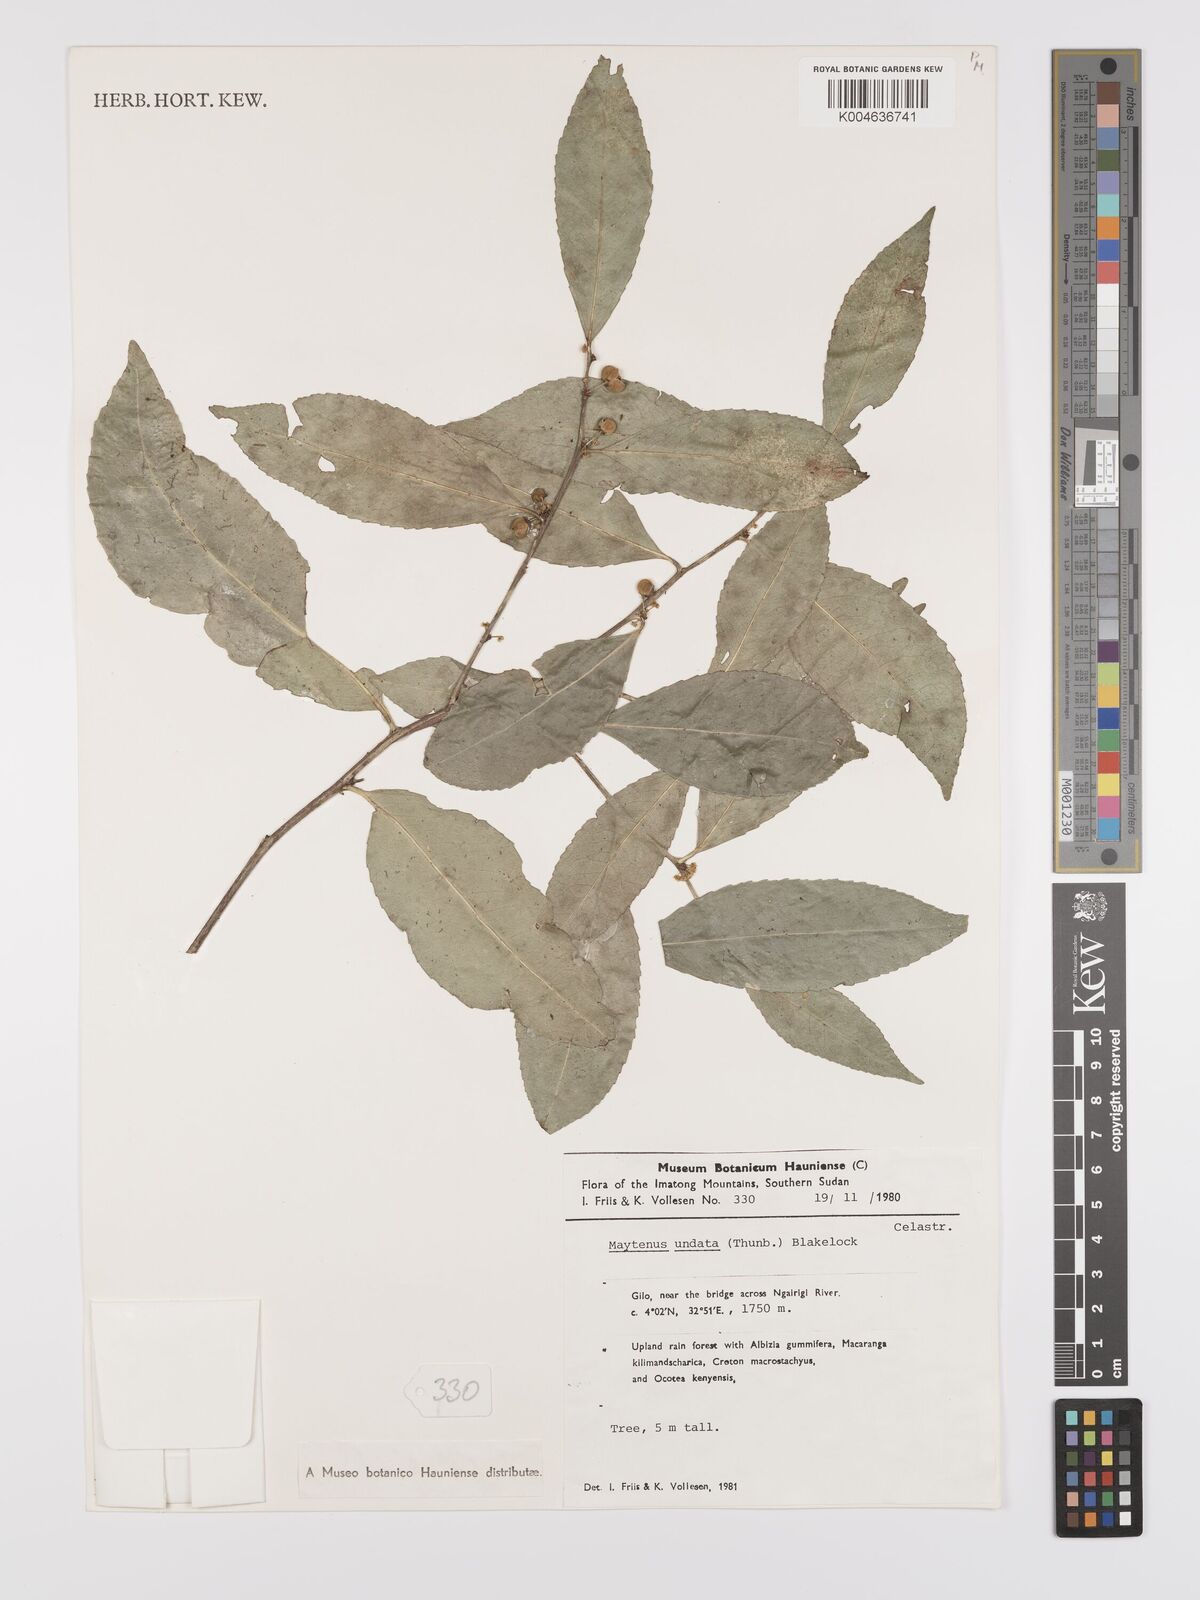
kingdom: Plantae
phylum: Tracheophyta
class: Magnoliopsida
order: Celastrales
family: Celastraceae
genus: Gymnosporia
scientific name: Gymnosporia undata
